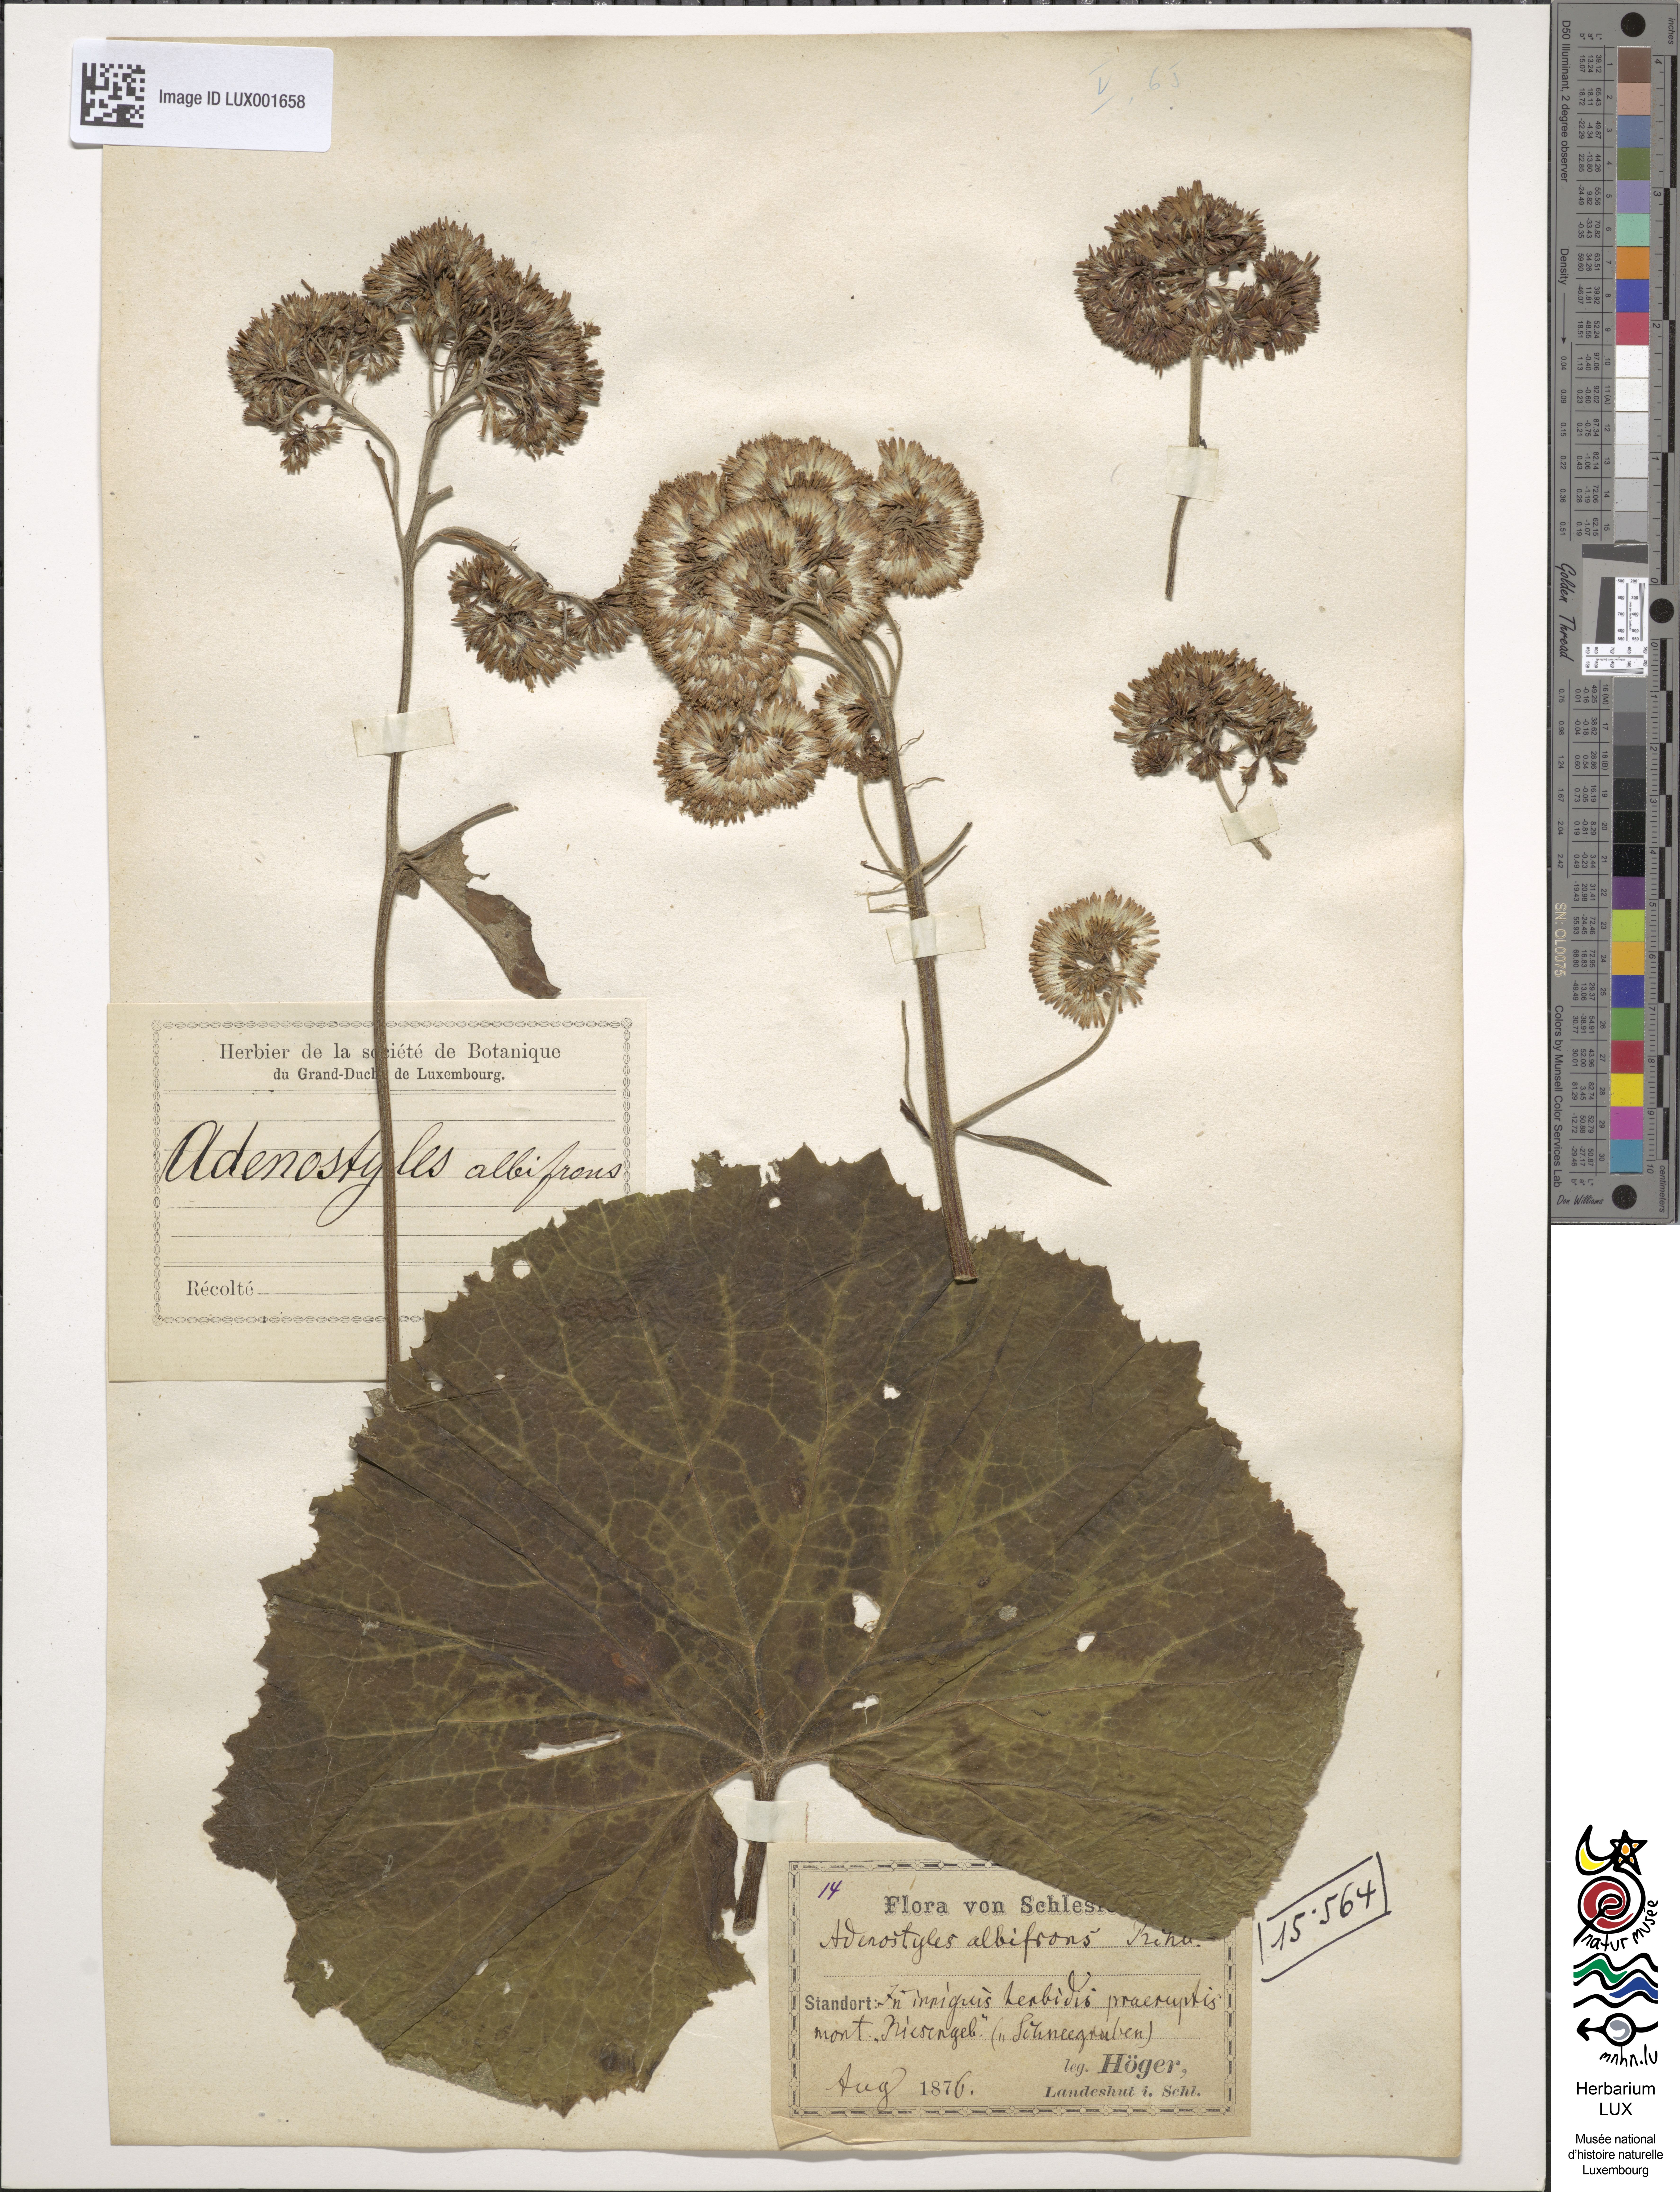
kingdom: Plantae
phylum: Tracheophyta
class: Magnoliopsida
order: Asterales
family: Asteraceae
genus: Adenostyles
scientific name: Adenostyles alliariae
